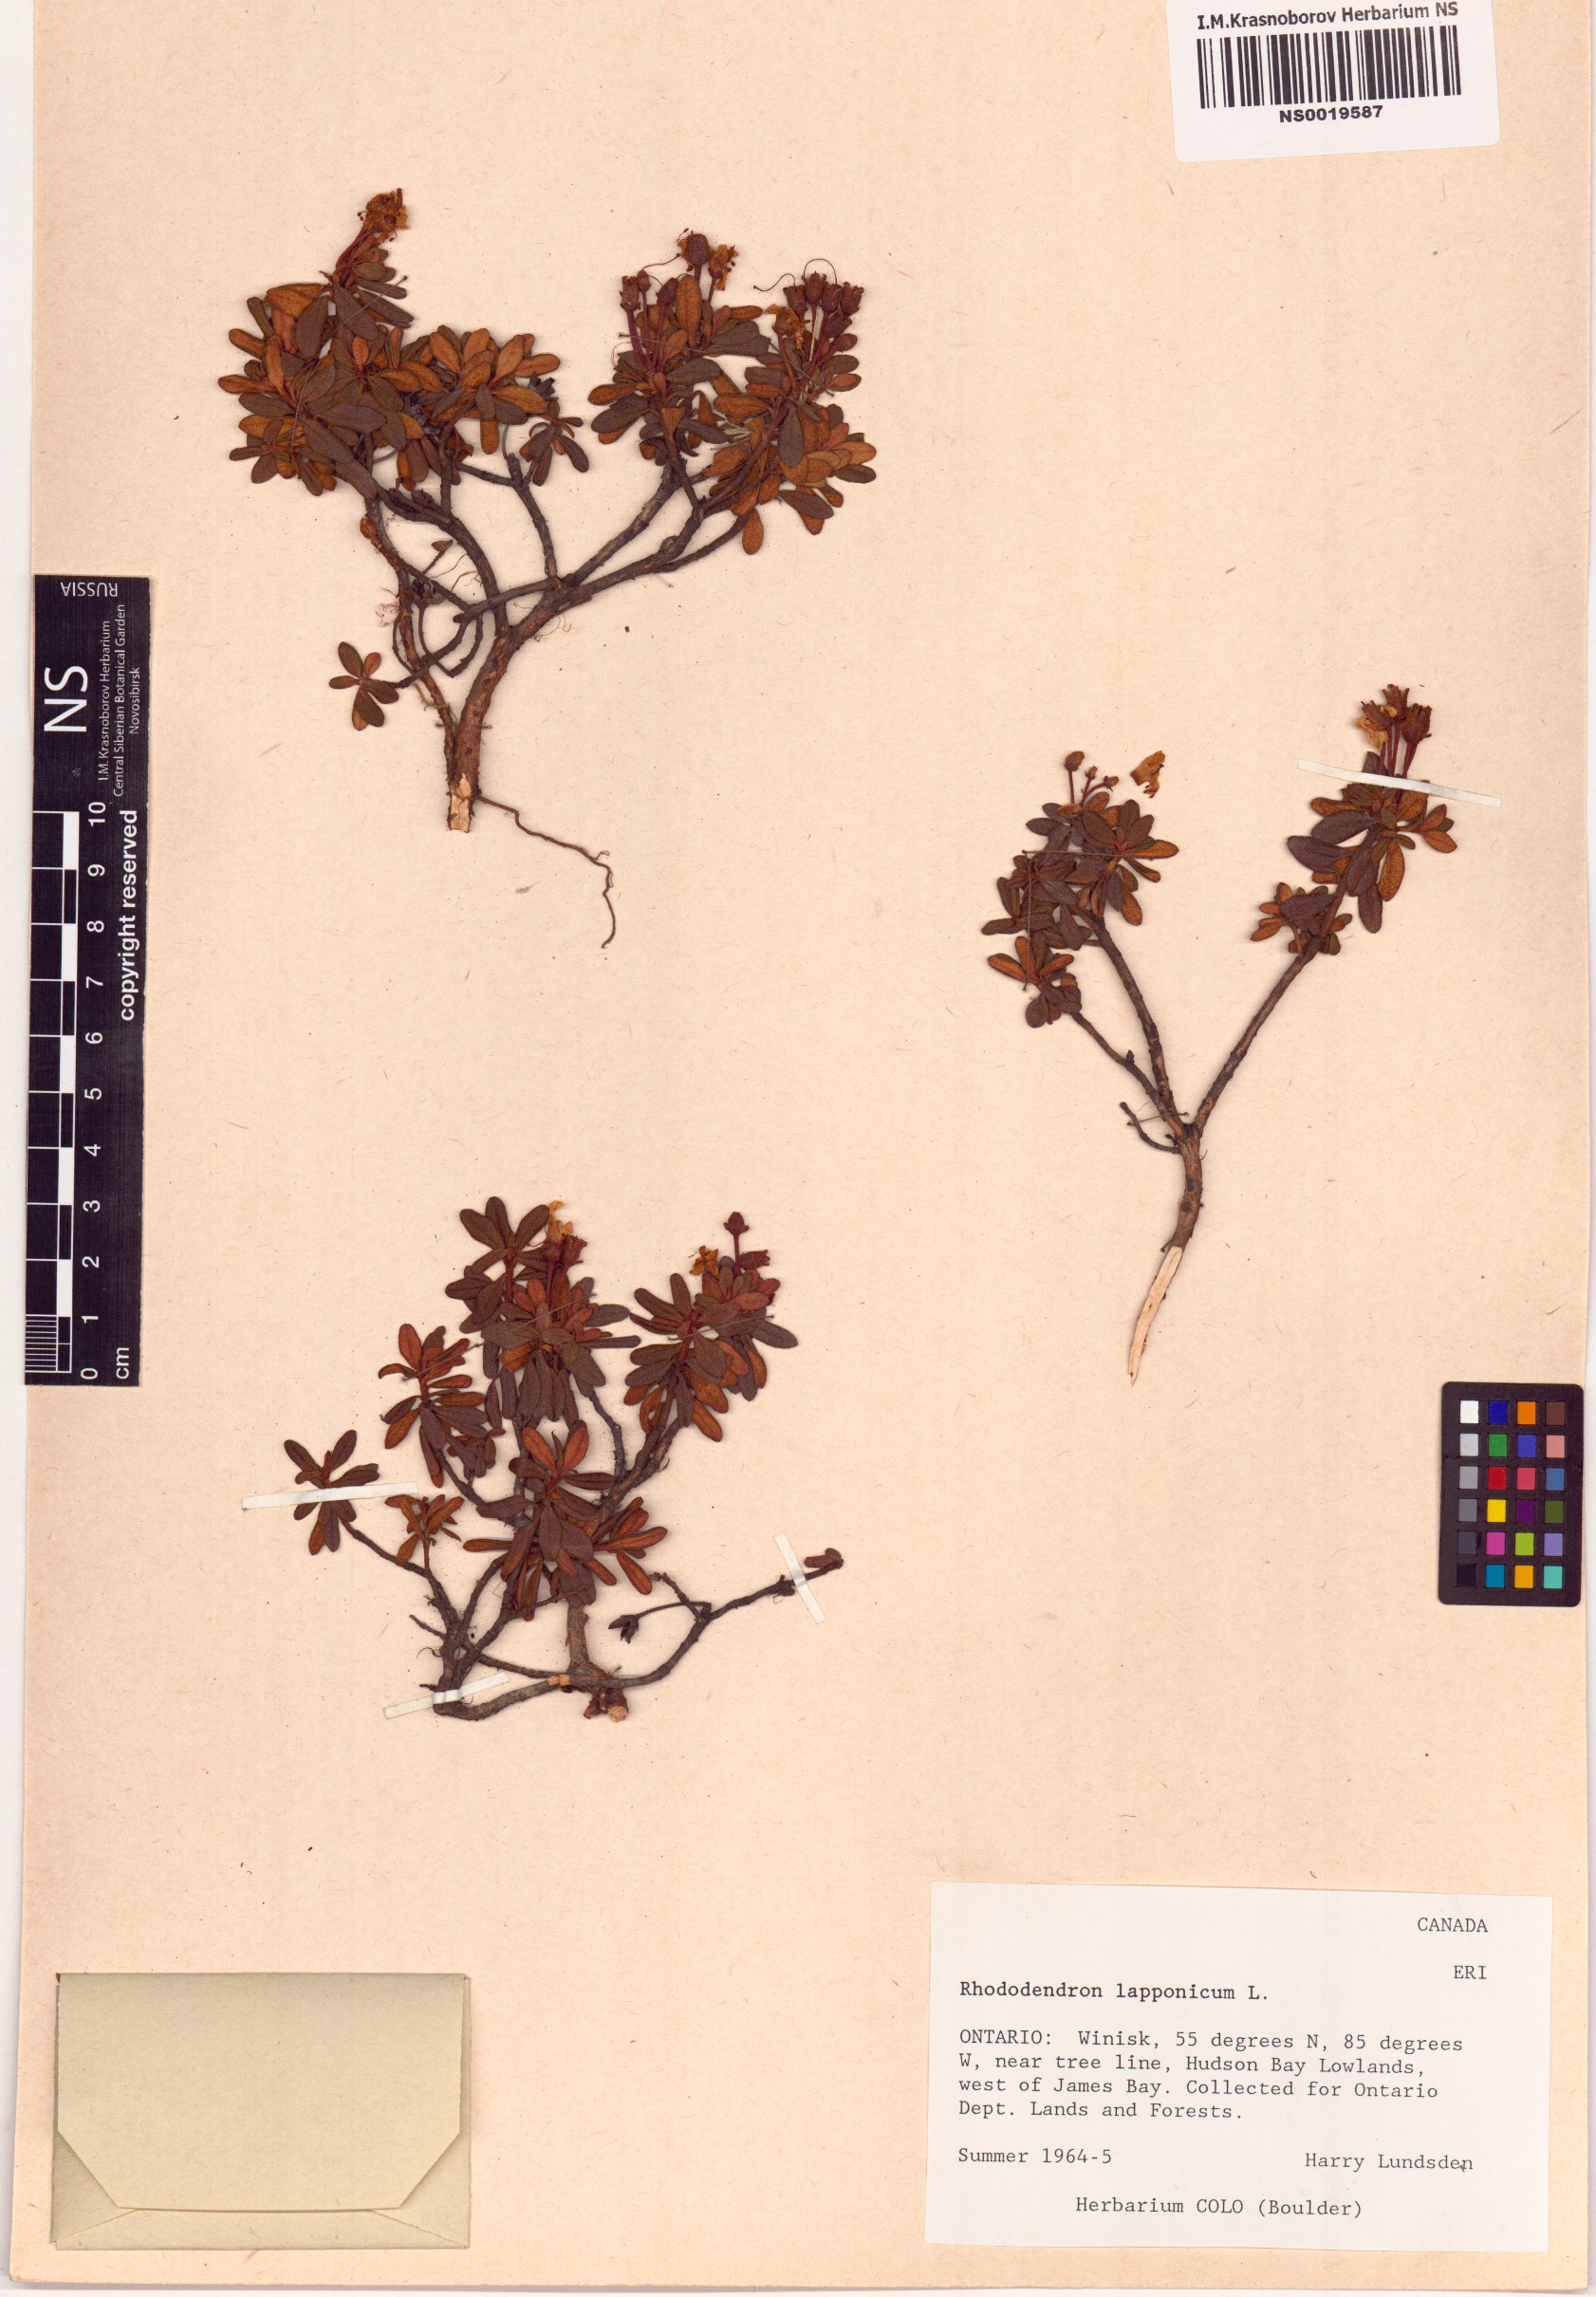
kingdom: Plantae
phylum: Tracheophyta
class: Magnoliopsida
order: Ericales
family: Ericaceae
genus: Rhododendron
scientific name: Rhododendron lapponicum
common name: Lapland rhododendron
